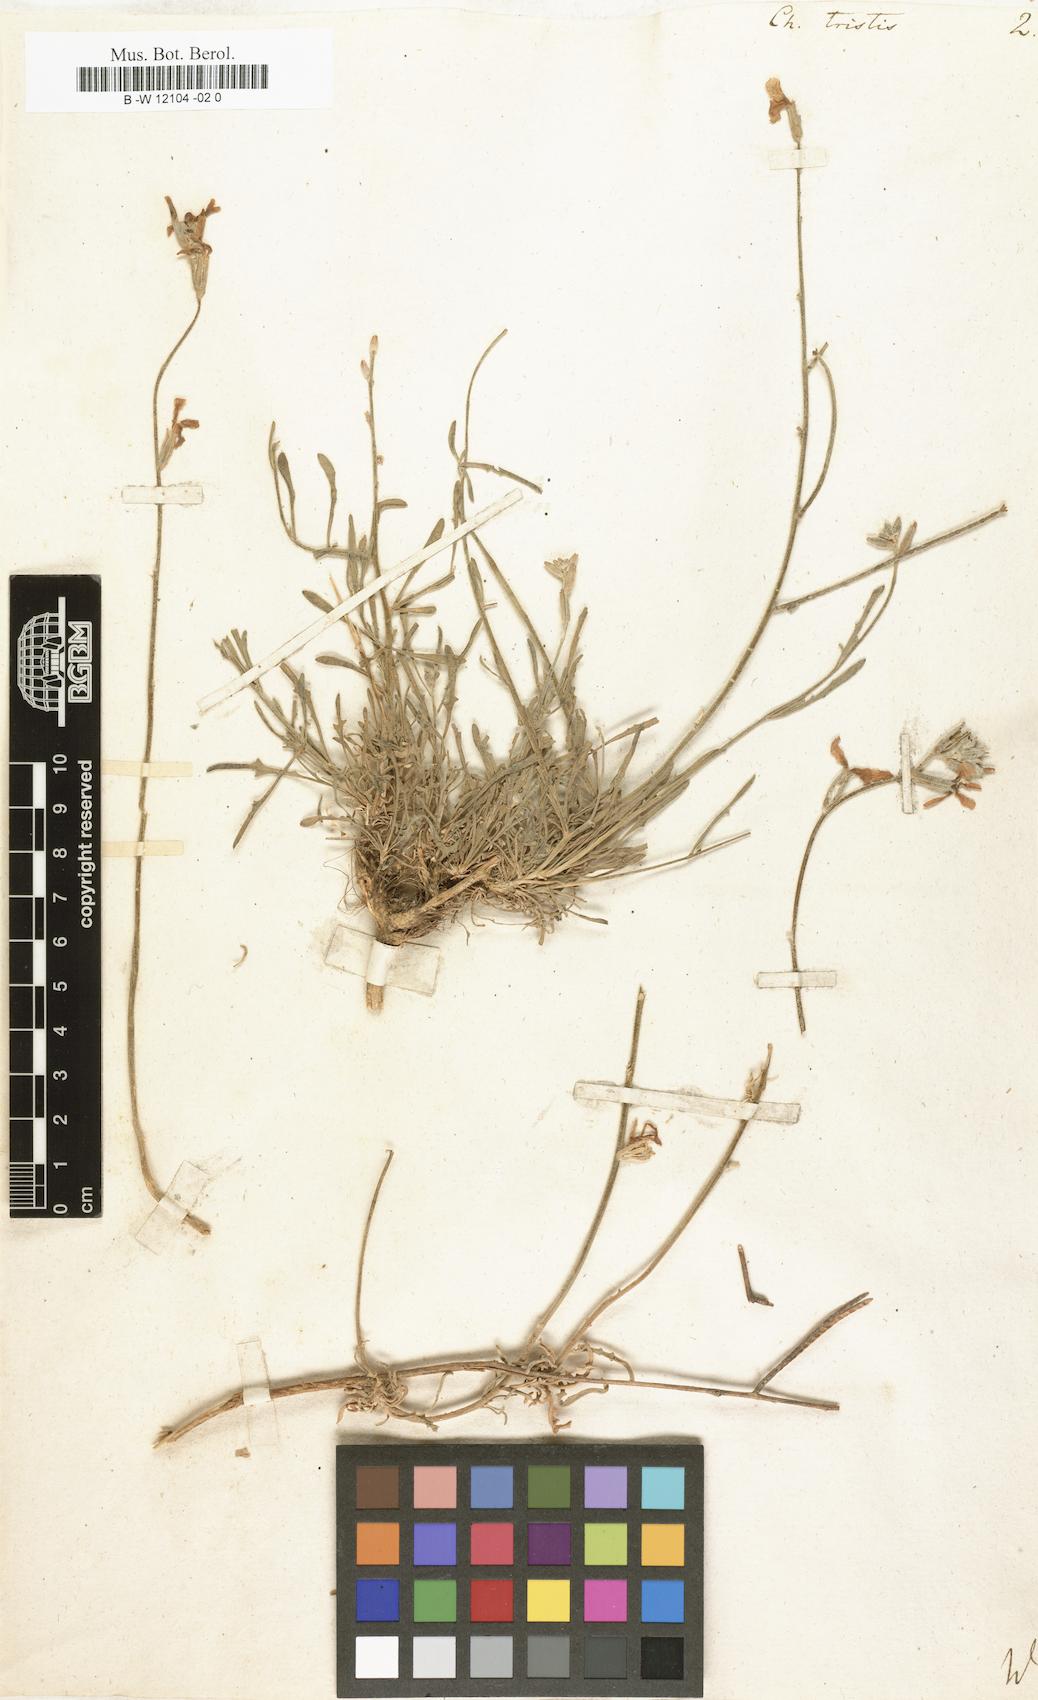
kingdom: Plantae
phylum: Tracheophyta
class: Magnoliopsida
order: Brassicales
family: Brassicaceae
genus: Matthiola
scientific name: Matthiola
